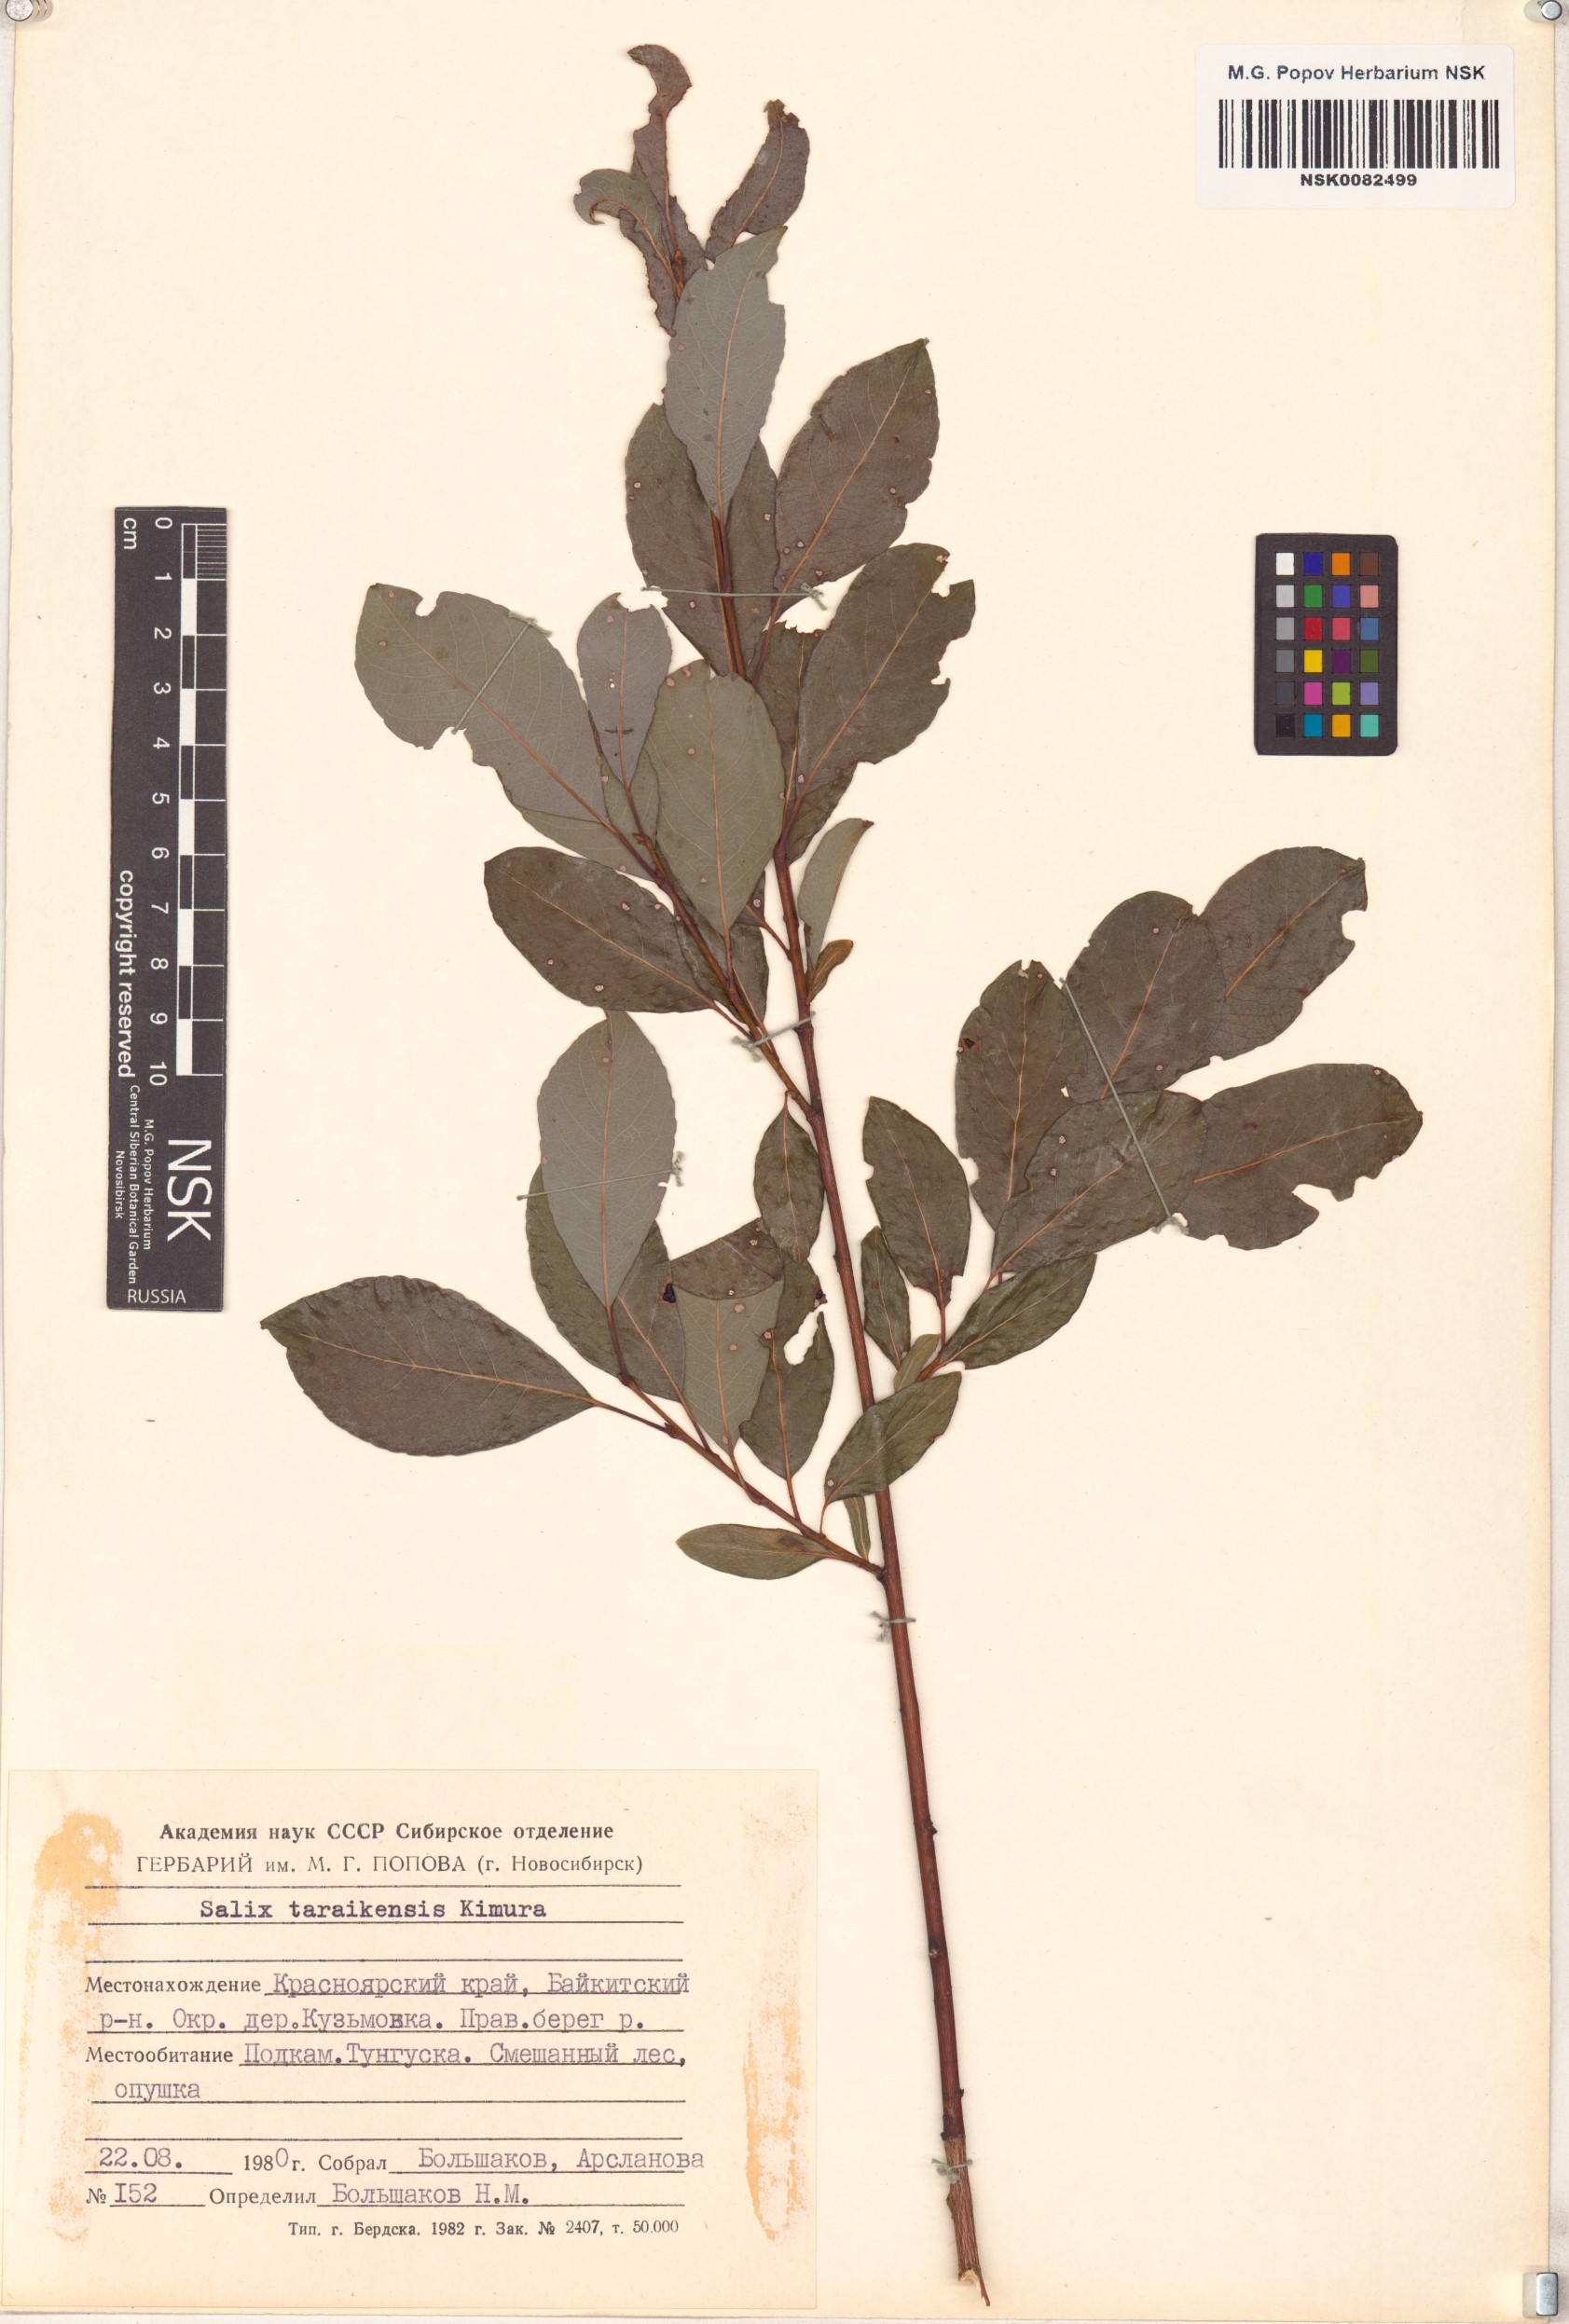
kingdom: Plantae
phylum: Tracheophyta
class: Magnoliopsida
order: Malpighiales
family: Salicaceae
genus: Salix
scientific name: Salix taraikensis
